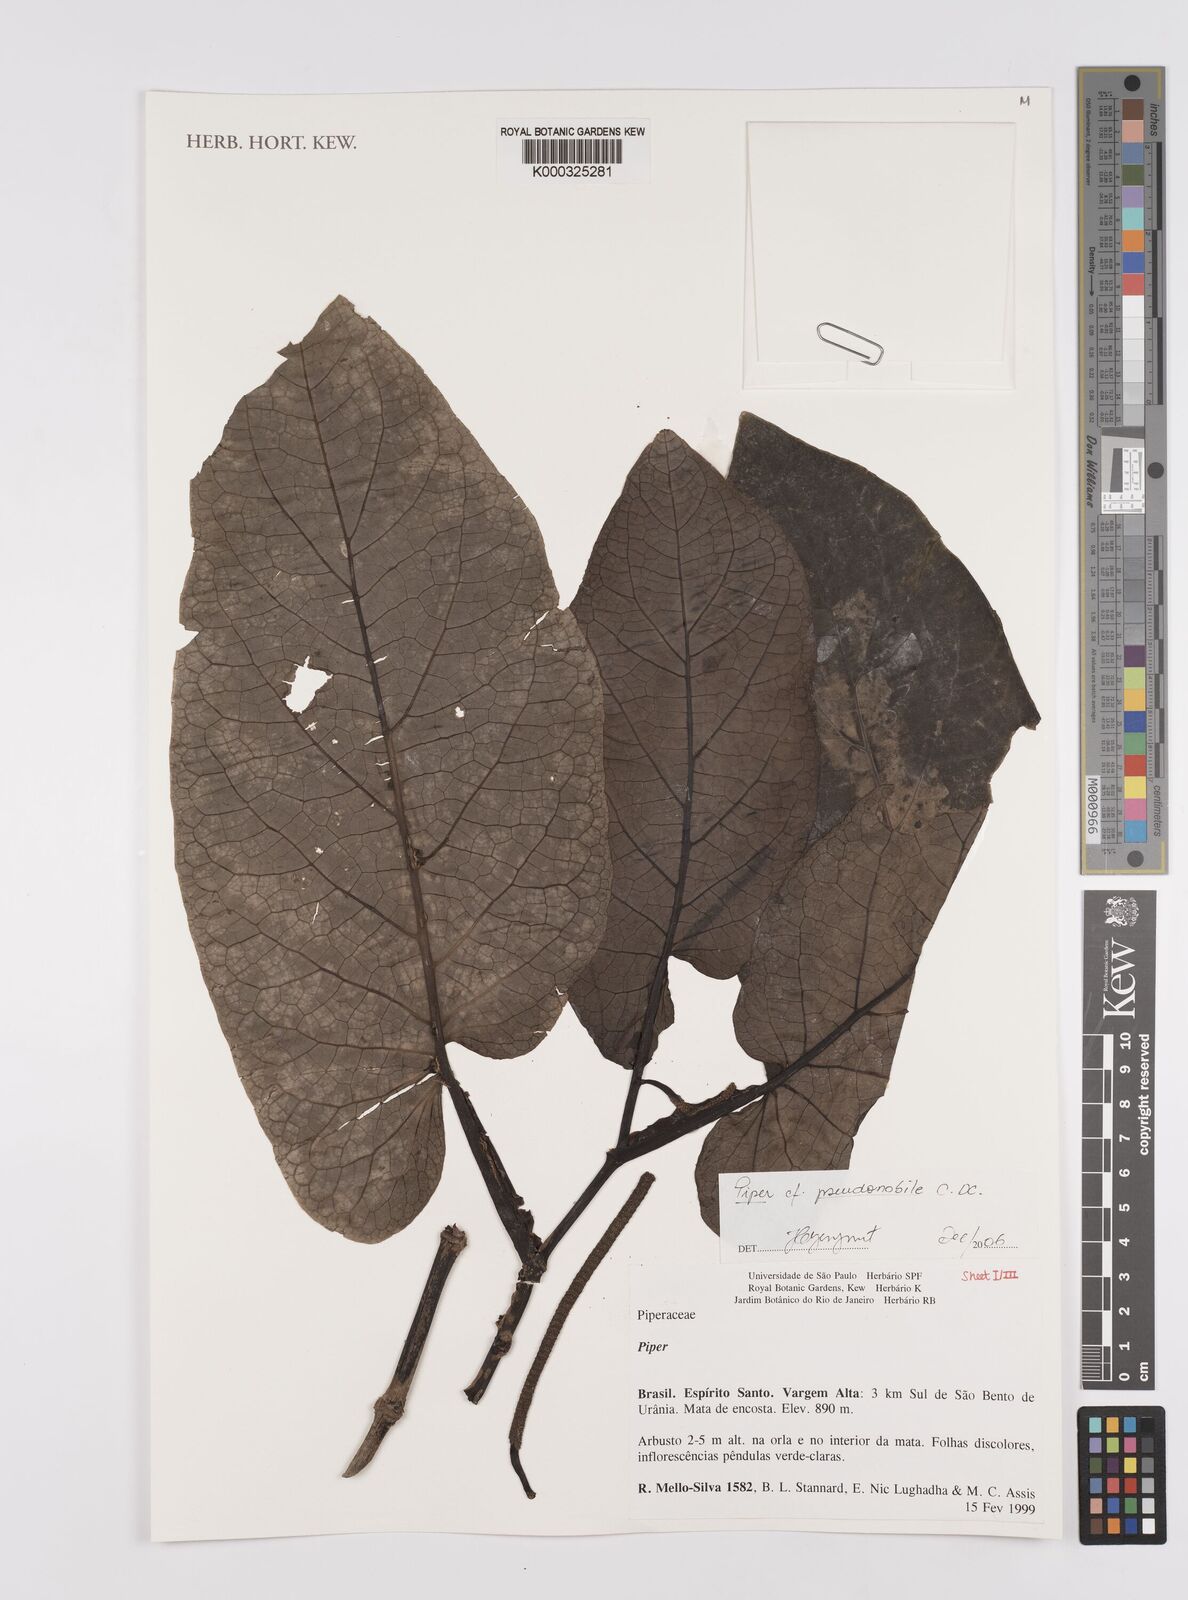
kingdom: Plantae
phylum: Tracheophyta
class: Magnoliopsida
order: Piperales
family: Piperaceae
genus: Piper
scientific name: Piper obliquum
